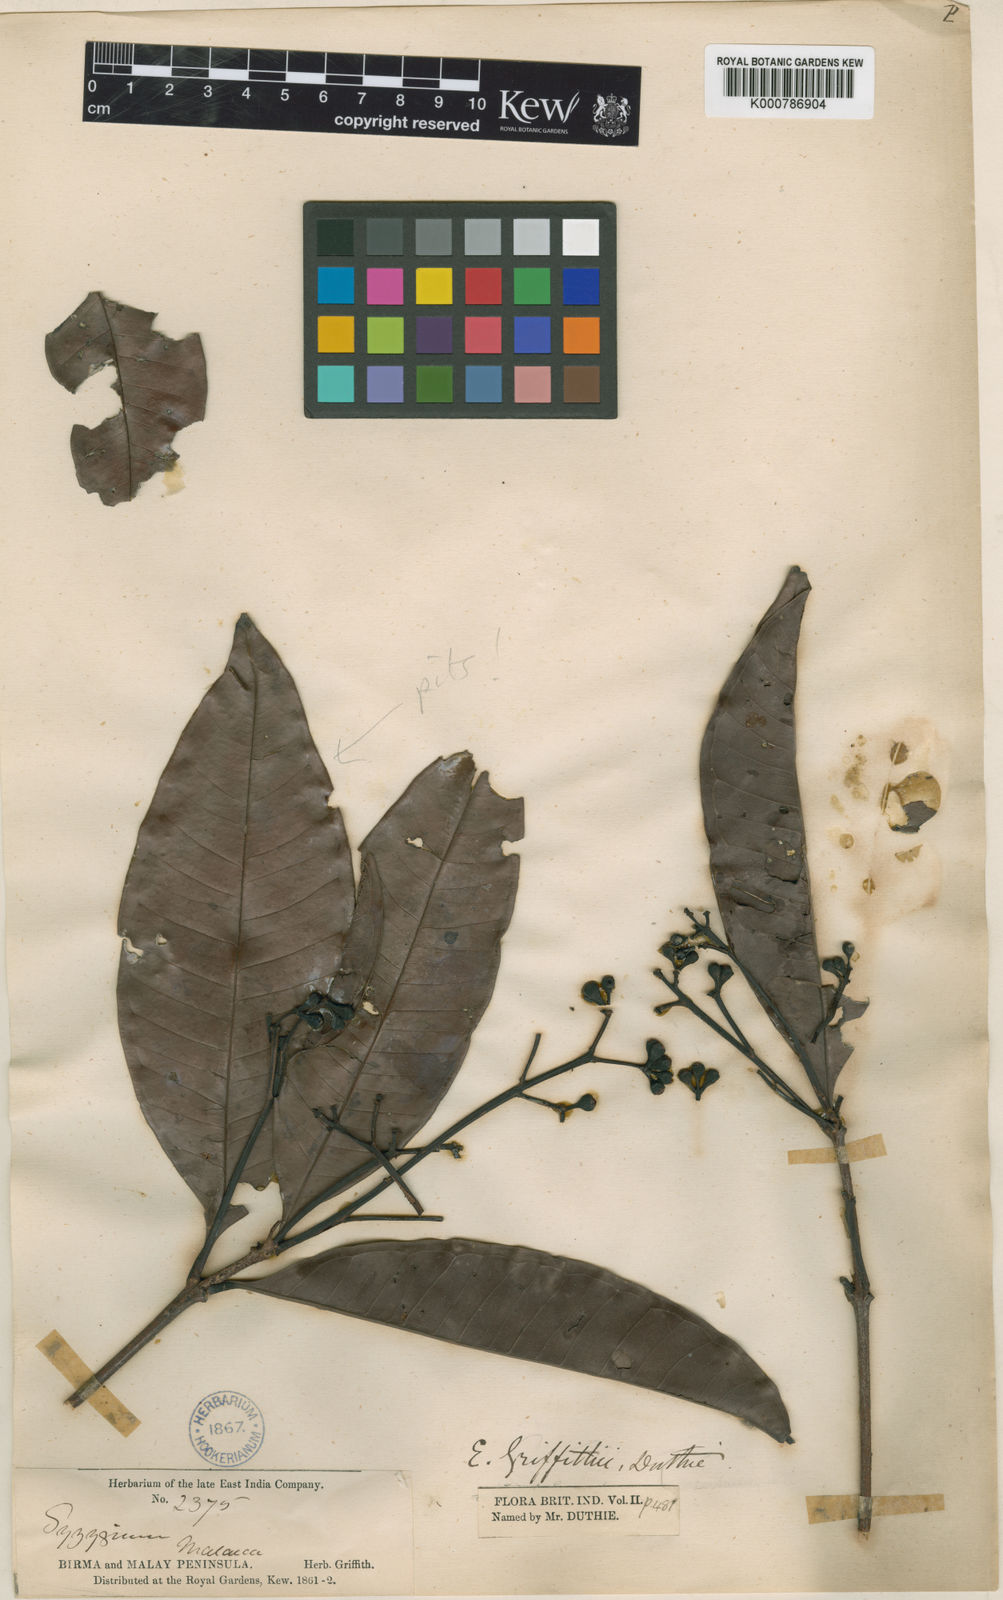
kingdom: Plantae
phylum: Tracheophyta
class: Magnoliopsida
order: Myrtales
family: Myrtaceae
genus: Syzygium
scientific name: Syzygium griffithii
